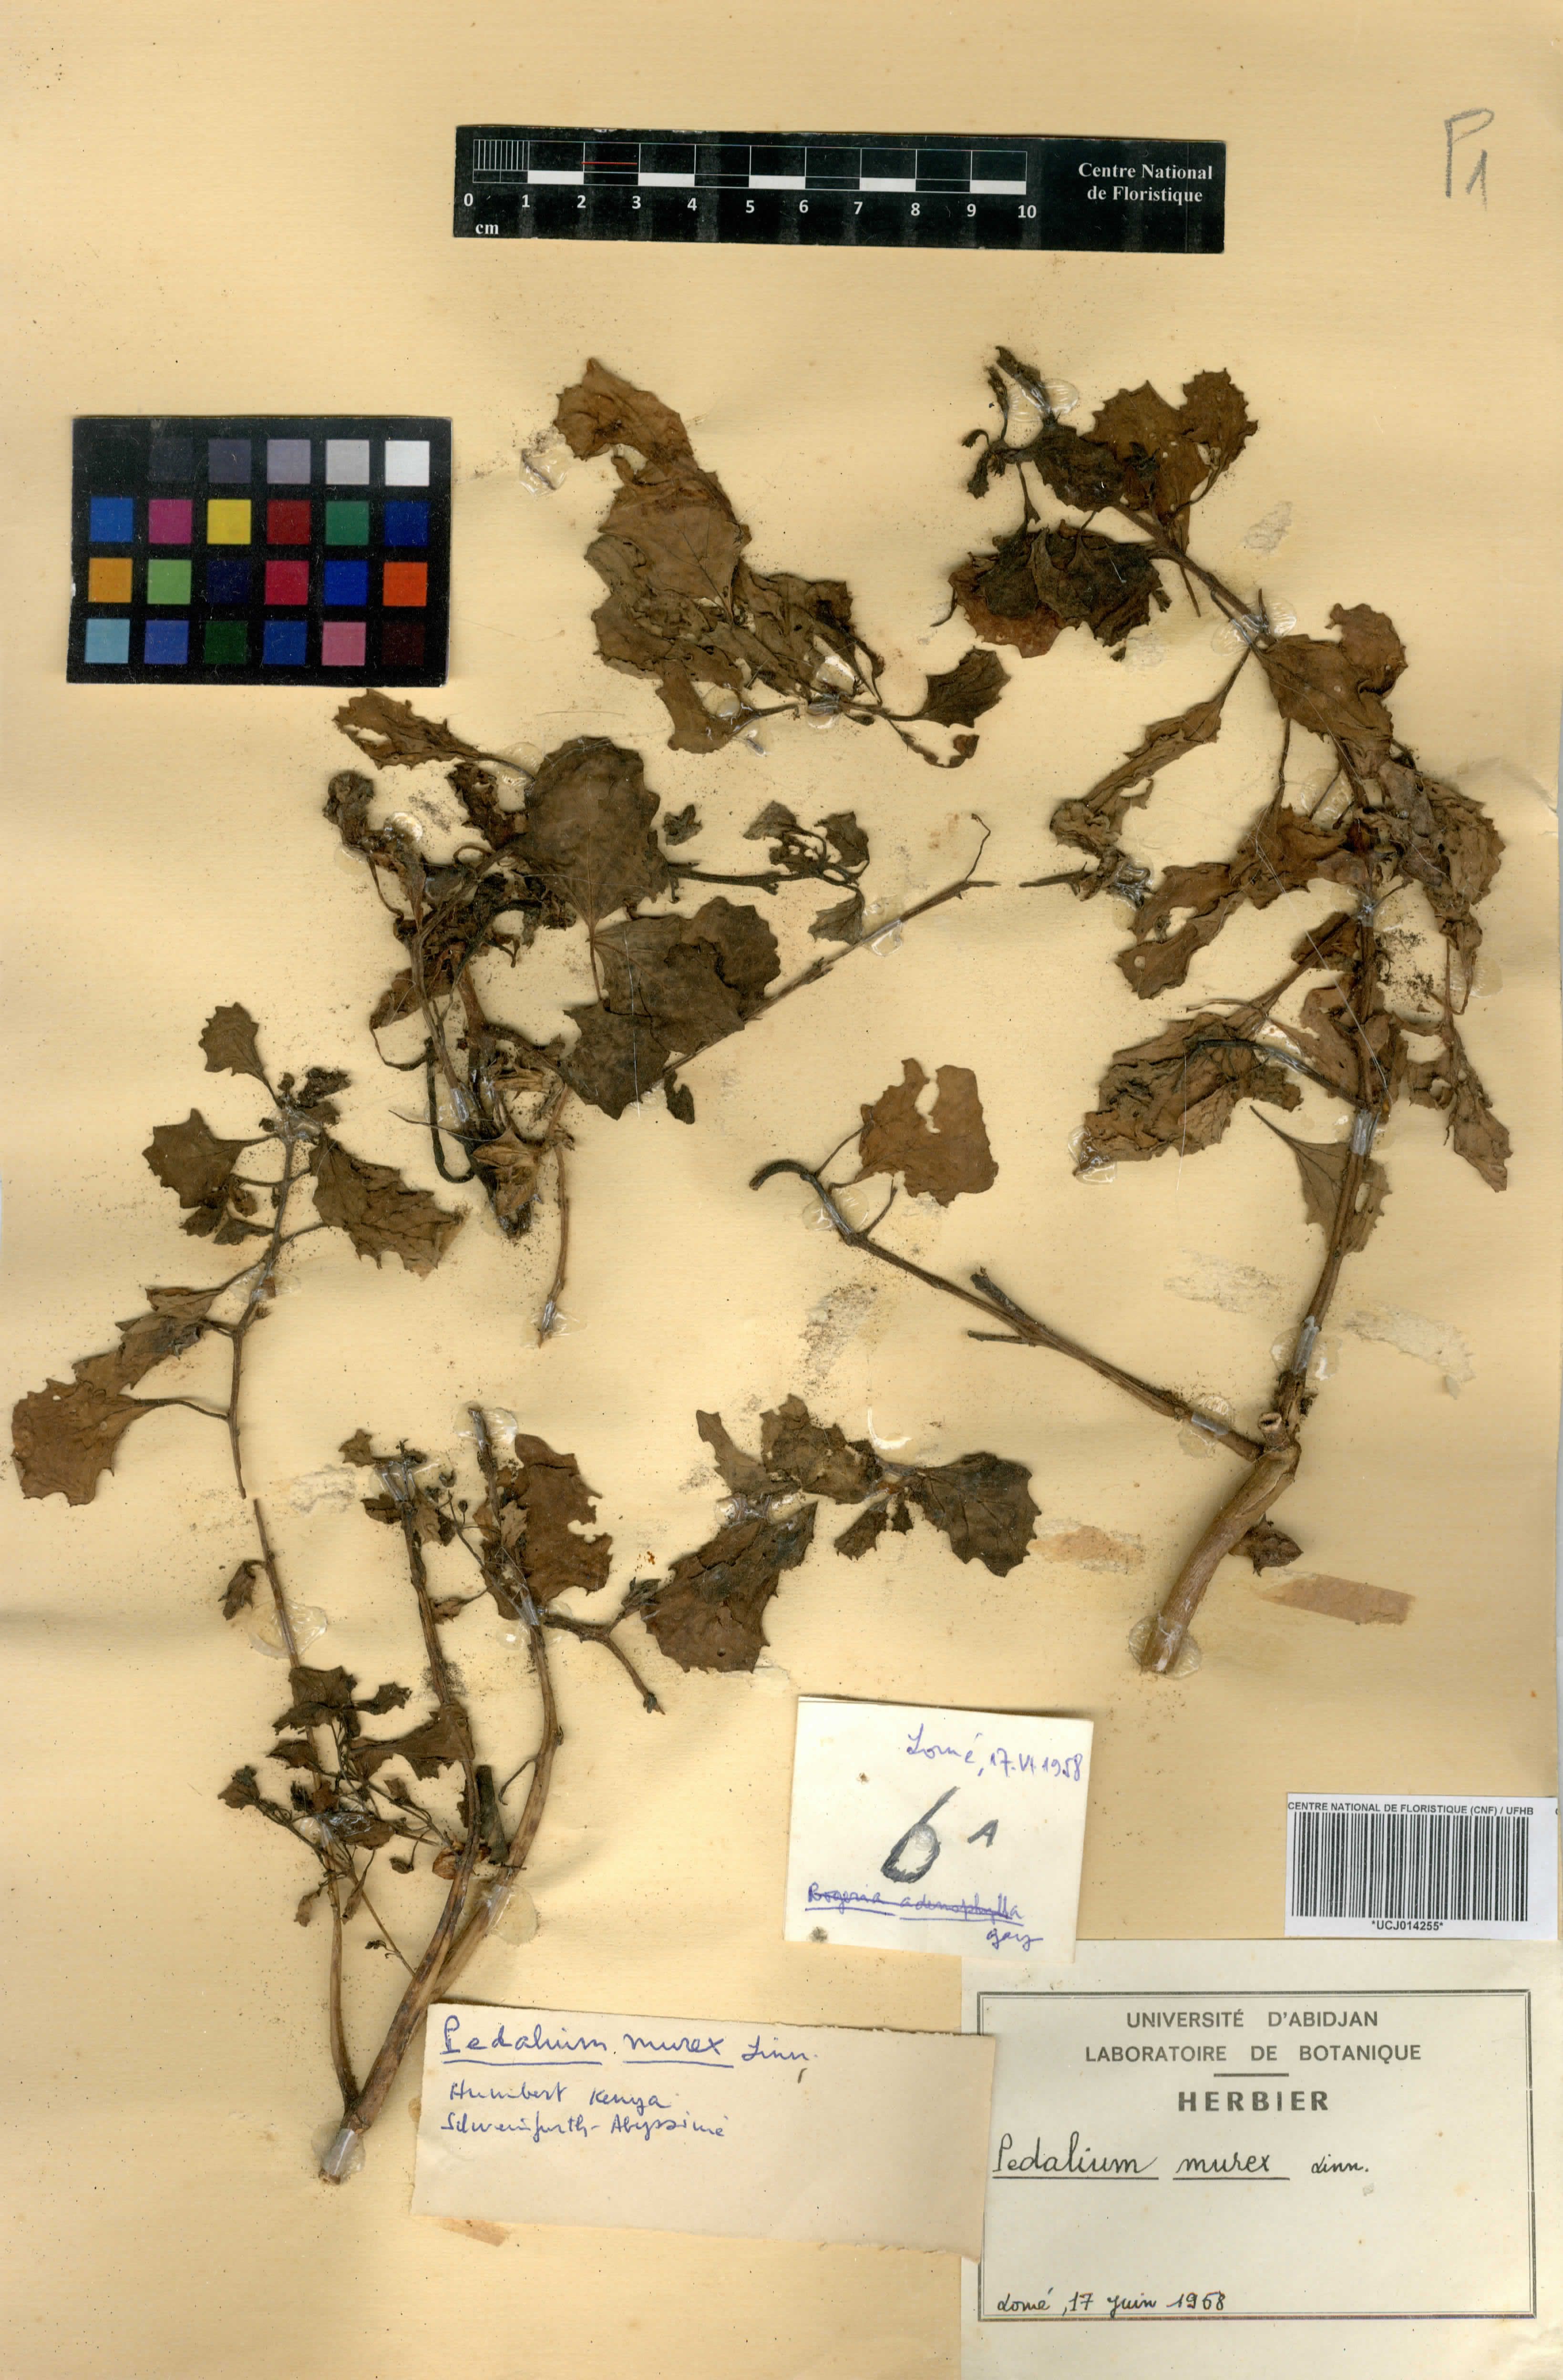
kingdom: Plantae
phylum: Tracheophyta
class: Magnoliopsida
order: Lamiales
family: Pedaliaceae
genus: Pedalium
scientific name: Pedalium murex
